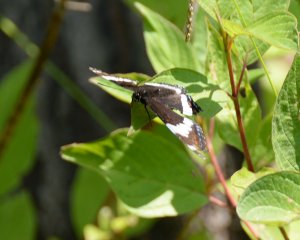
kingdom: Animalia
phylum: Arthropoda
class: Insecta
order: Lepidoptera
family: Nymphalidae
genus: Limenitis
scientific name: Limenitis arthemis
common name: Red-spotted Admiral
